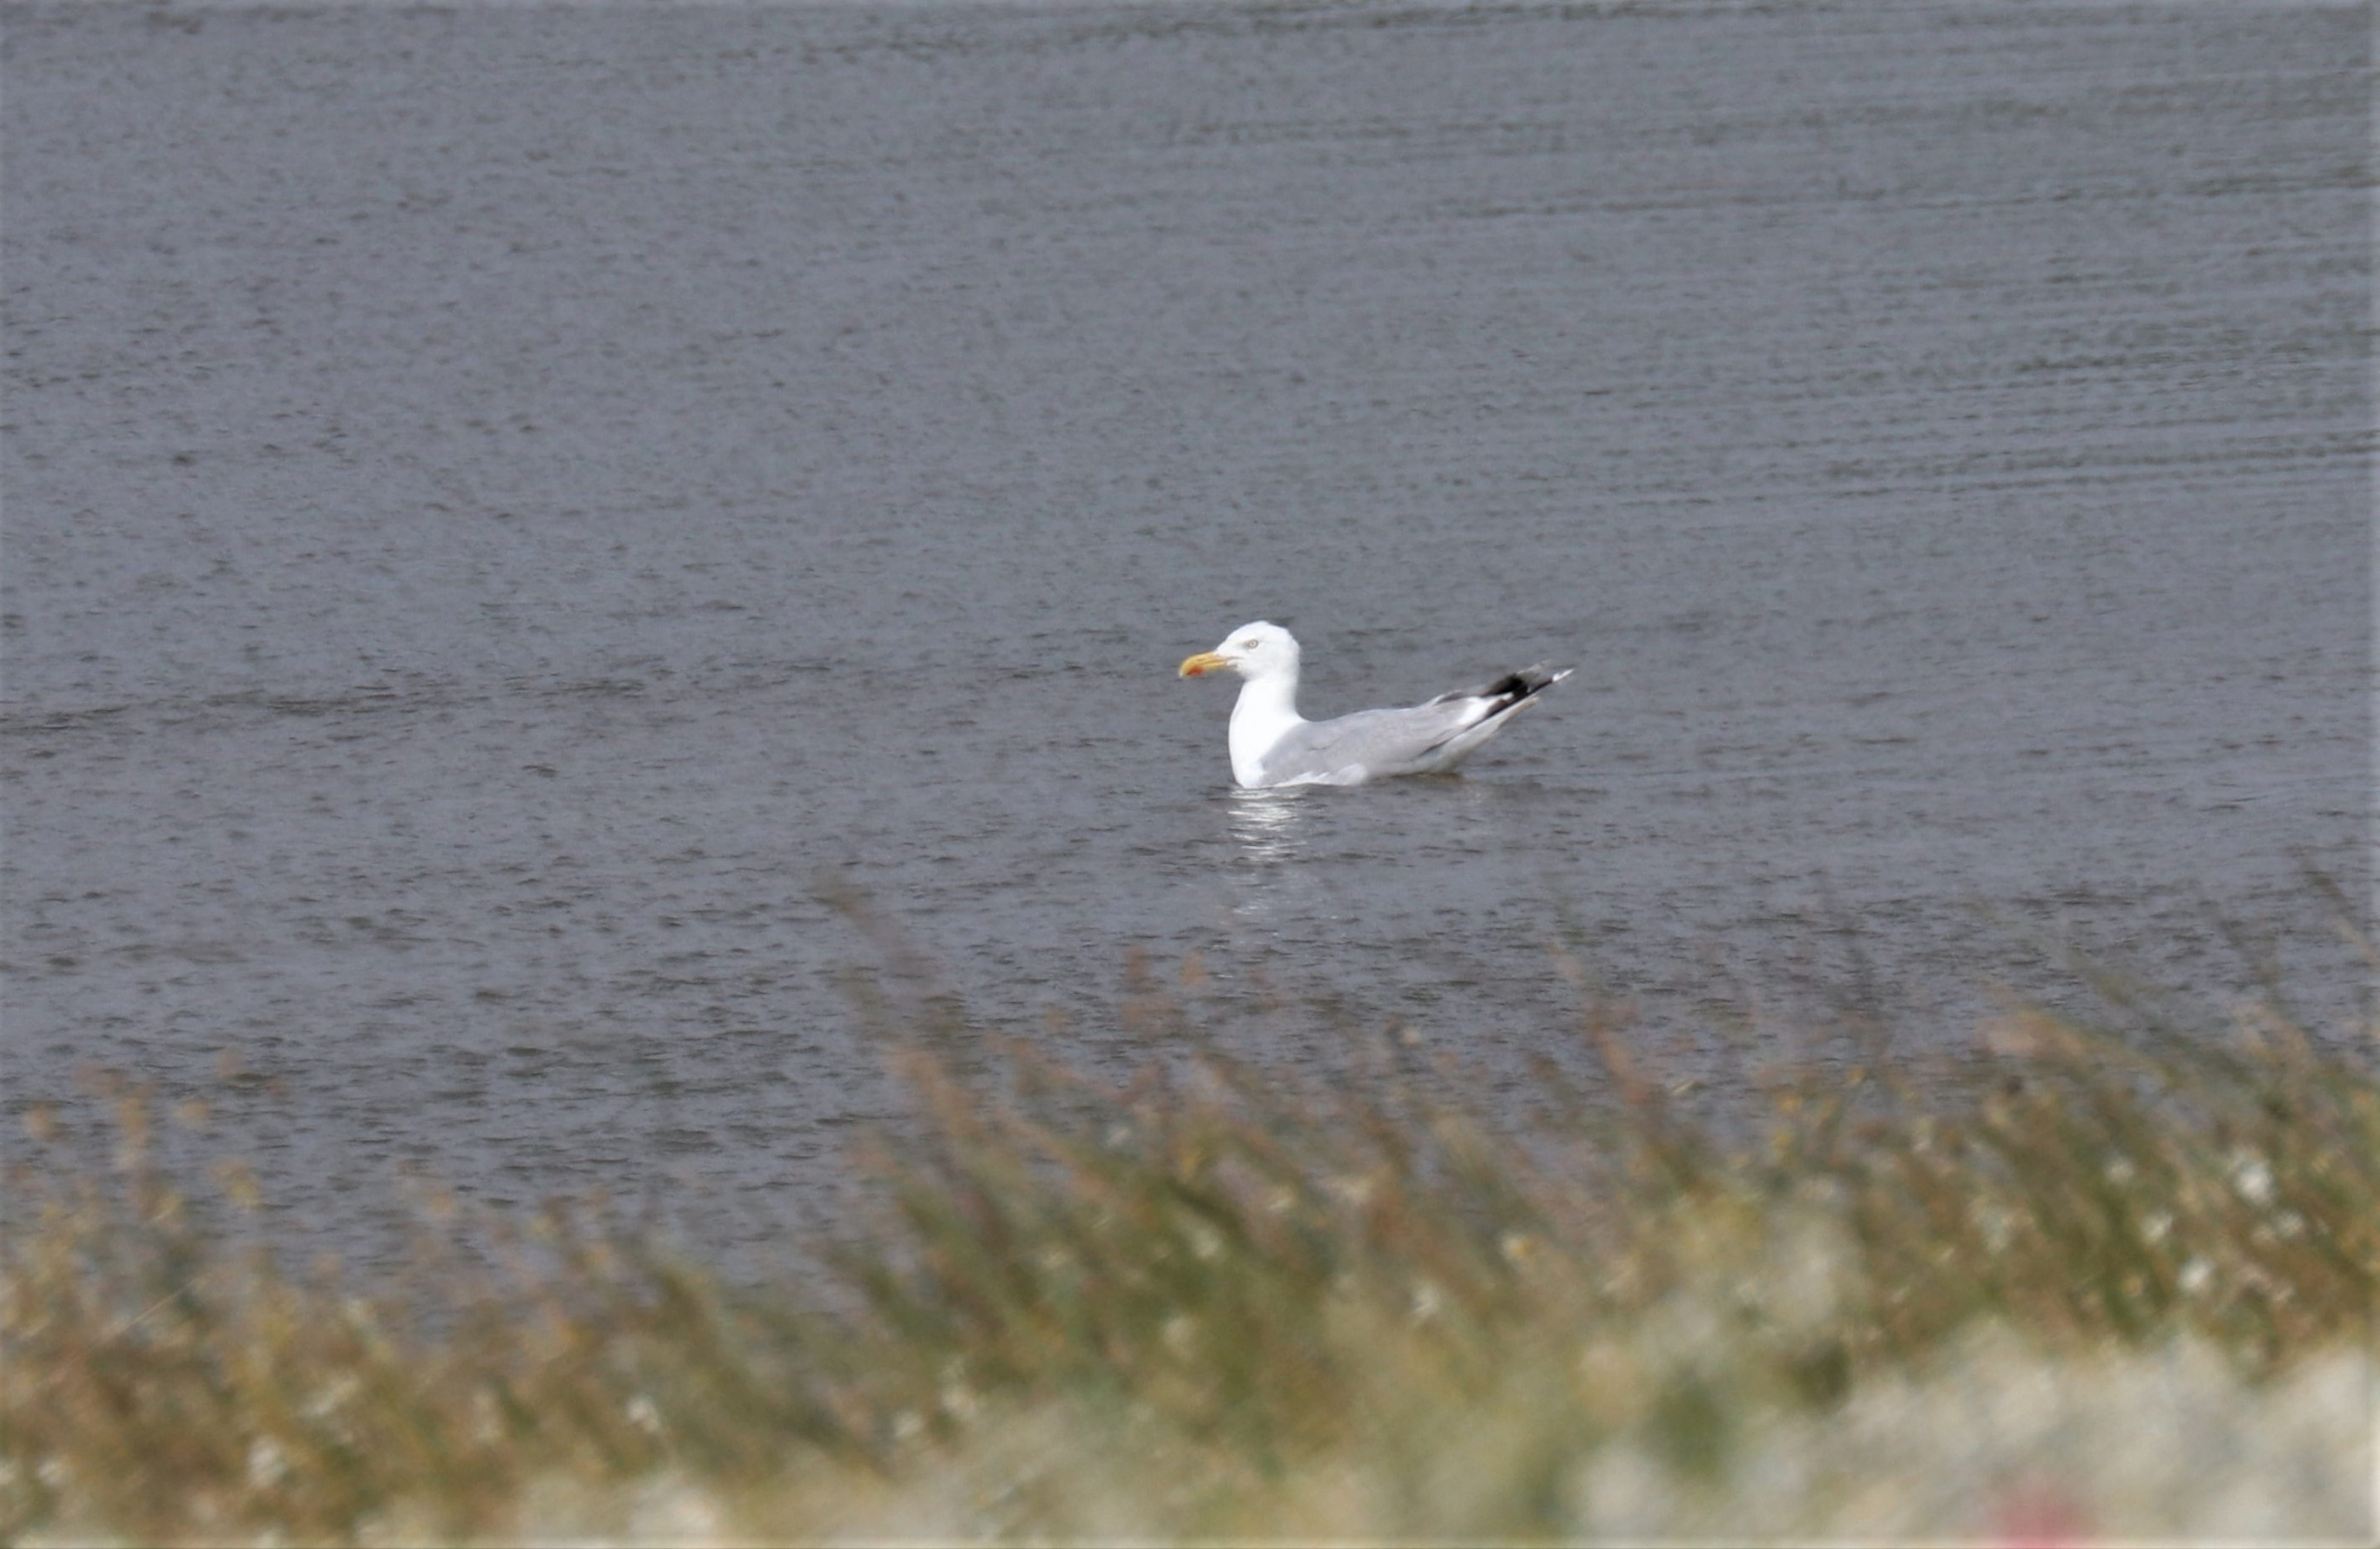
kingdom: Animalia
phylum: Chordata
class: Aves
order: Charadriiformes
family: Laridae
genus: Larus
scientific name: Larus argentatus
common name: Sølvmåge
